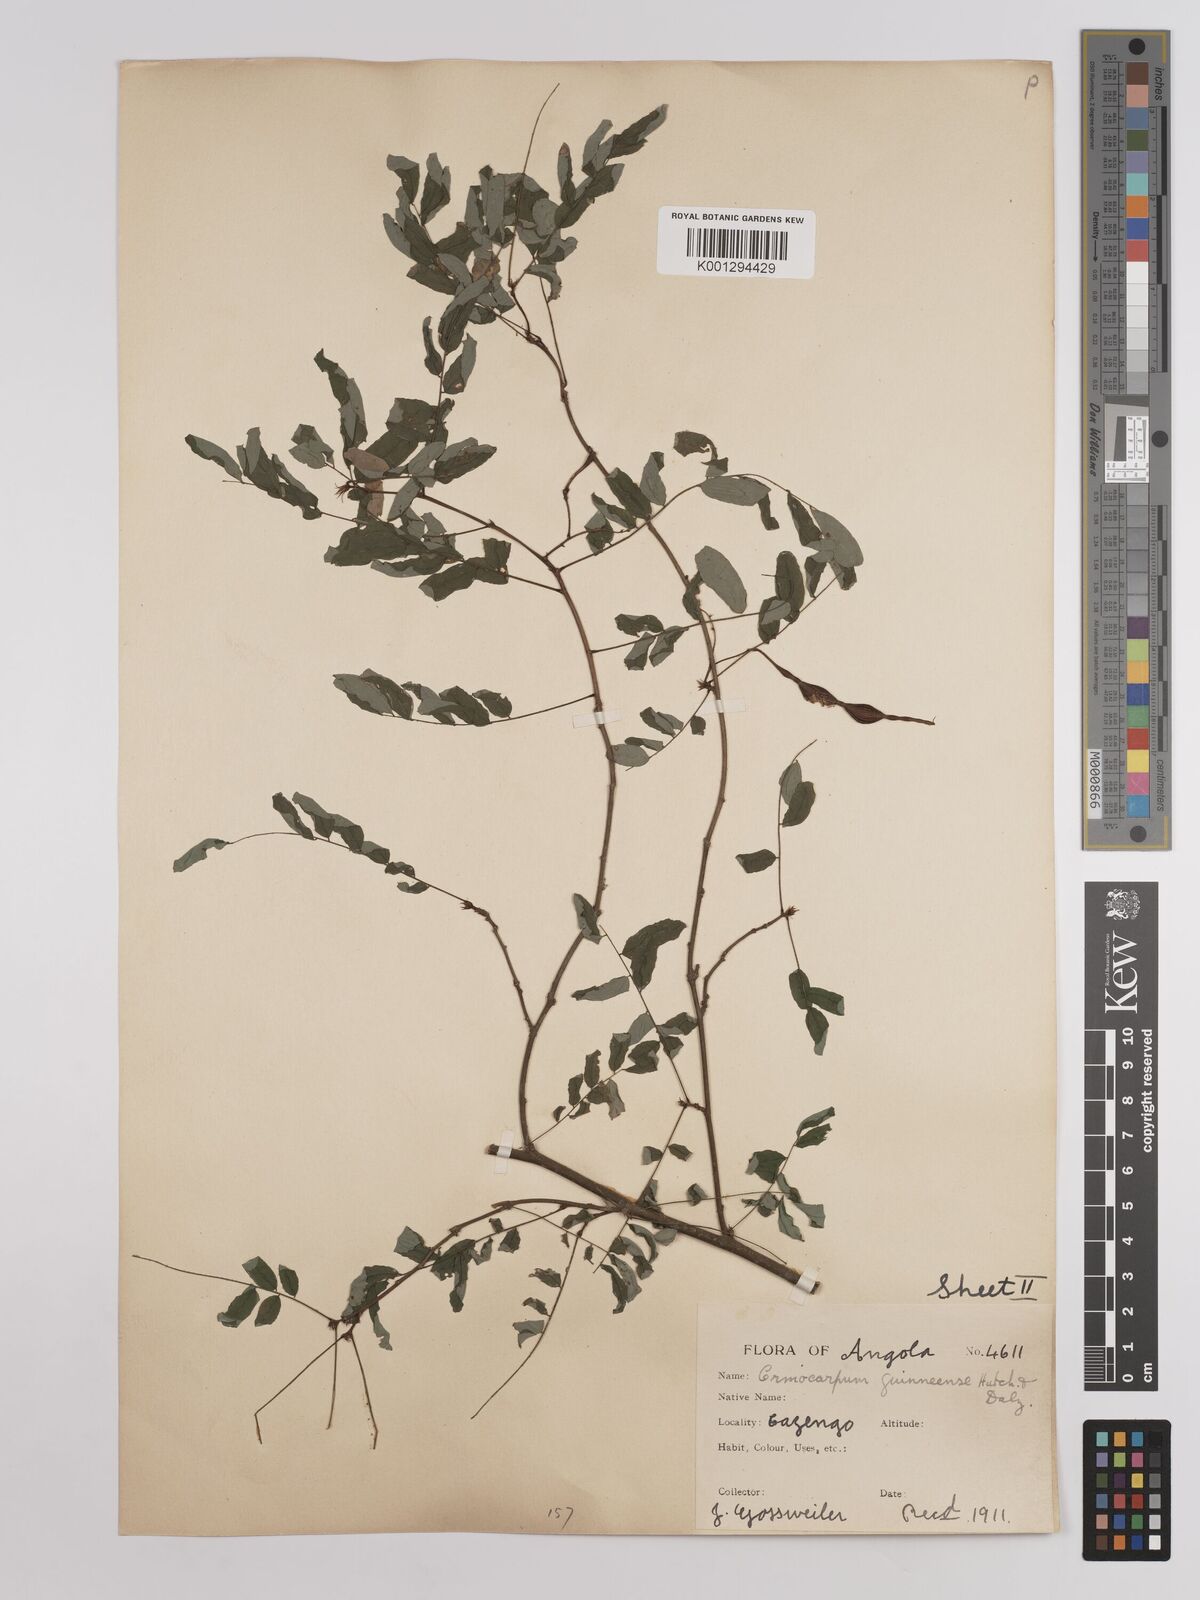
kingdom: Plantae
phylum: Tracheophyta
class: Magnoliopsida
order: Fabales
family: Fabaceae
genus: Ormocarpum
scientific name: Ormocarpum sennoides
